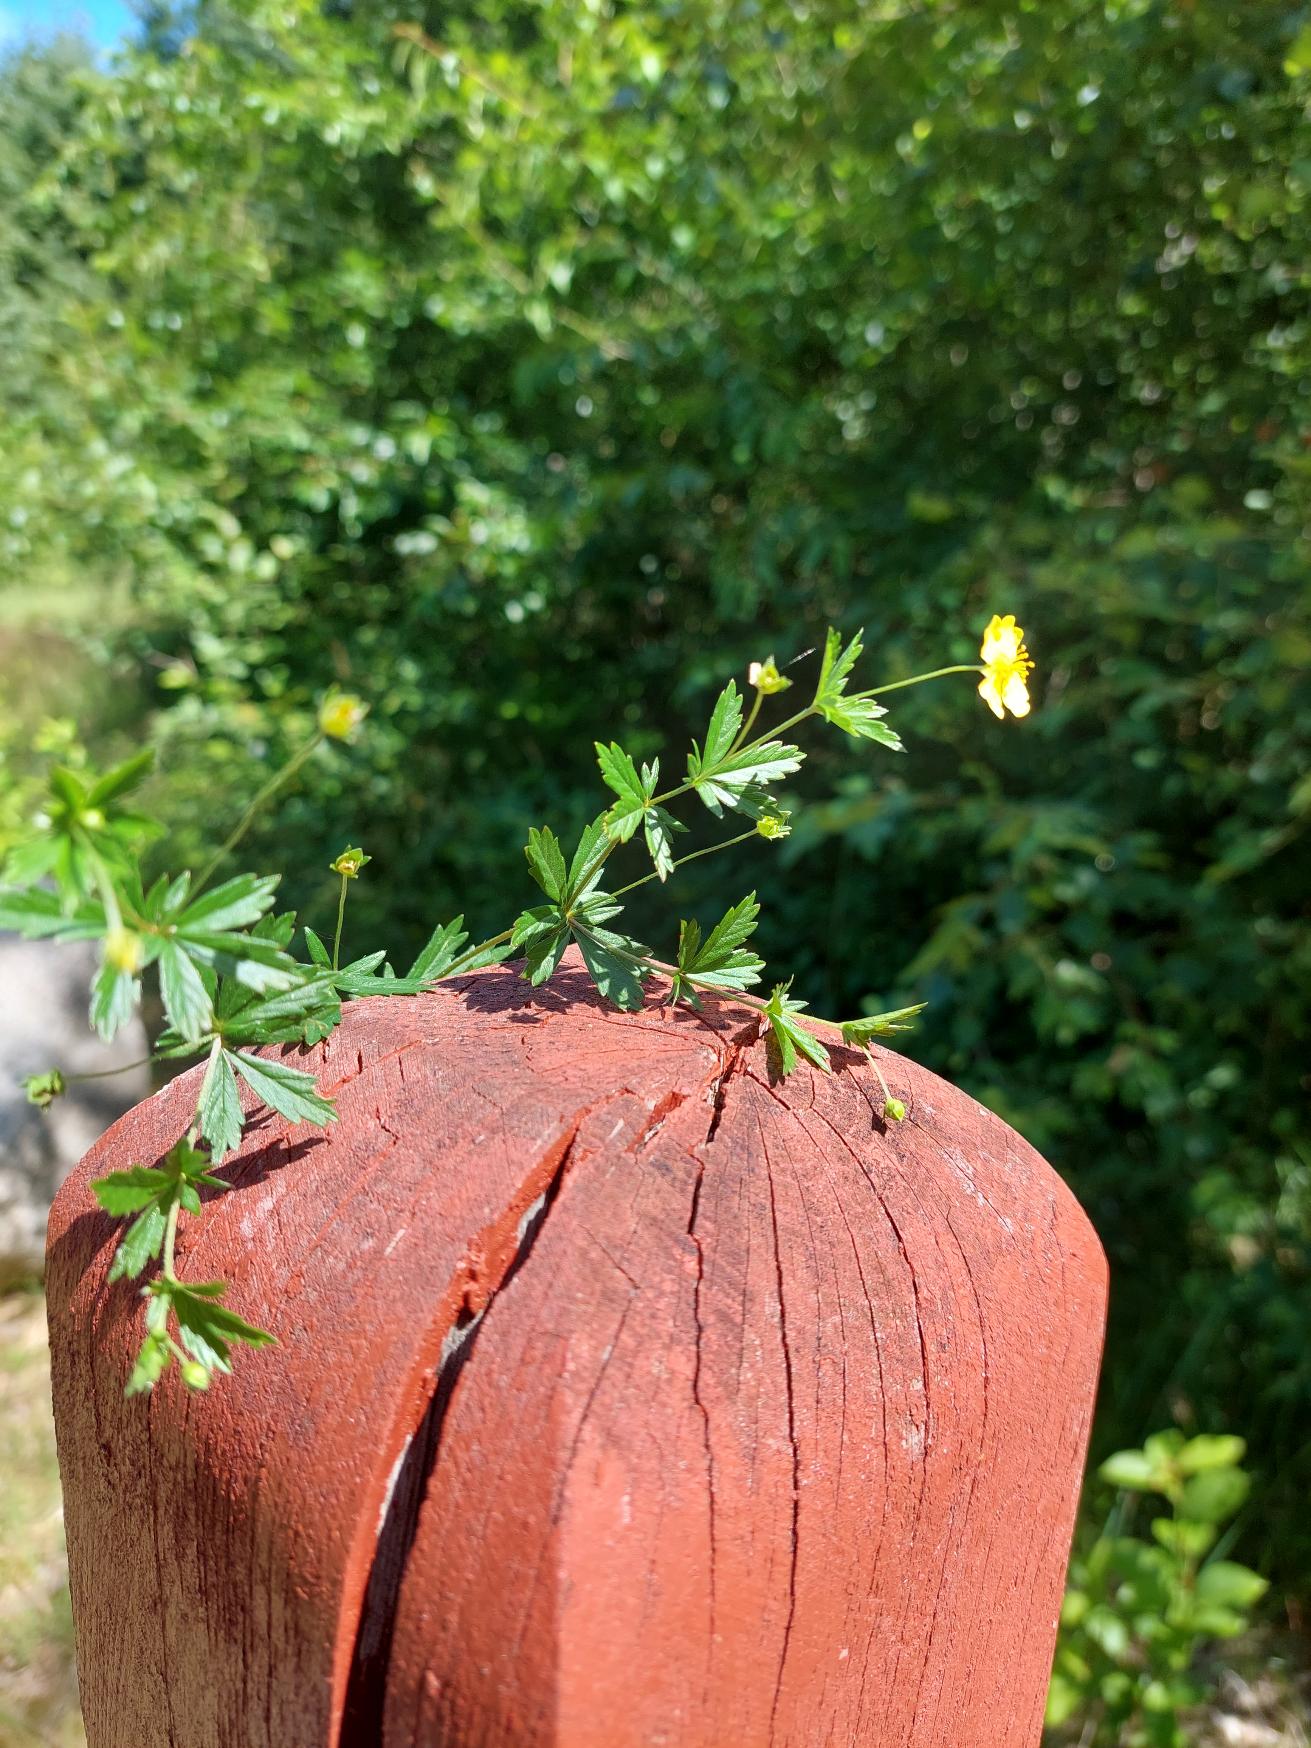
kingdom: Plantae
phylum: Tracheophyta
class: Magnoliopsida
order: Rosales
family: Rosaceae
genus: Potentilla
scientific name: Potentilla erecta
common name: Tormentil
